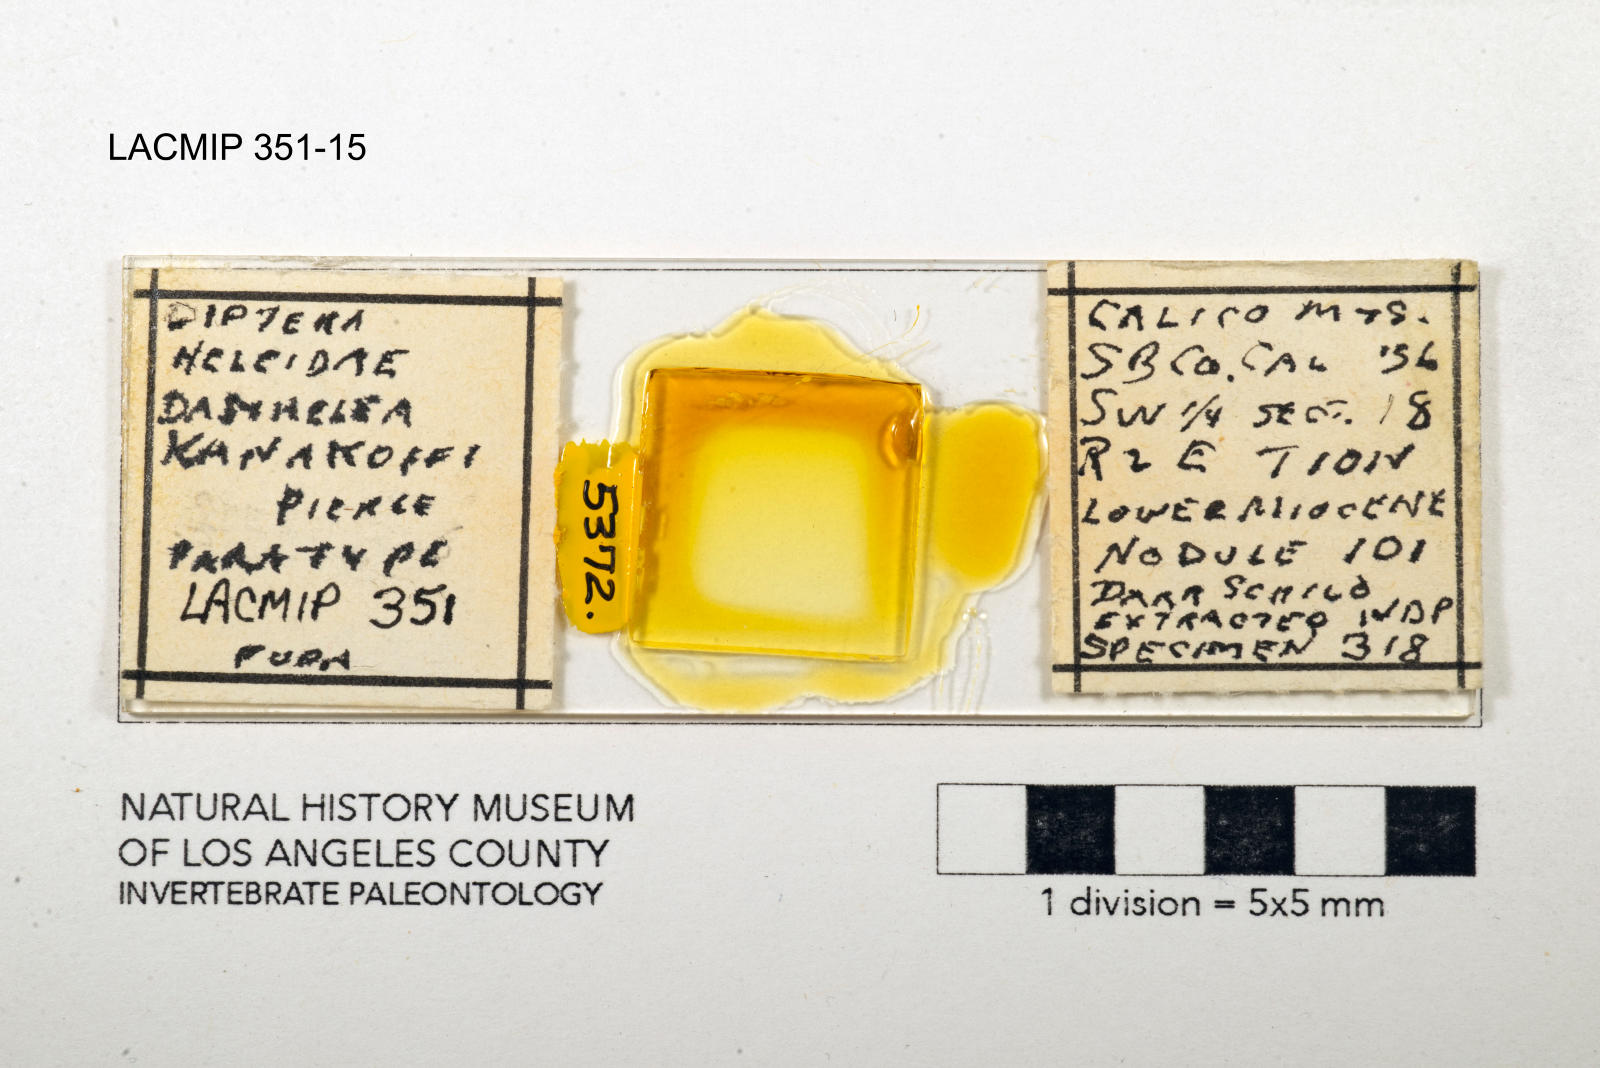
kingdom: Animalia
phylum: Arthropoda
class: Insecta
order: Diptera
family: Ceratopogonidae
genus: Dasyhelea
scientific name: Dasyhelea kanakoffi
